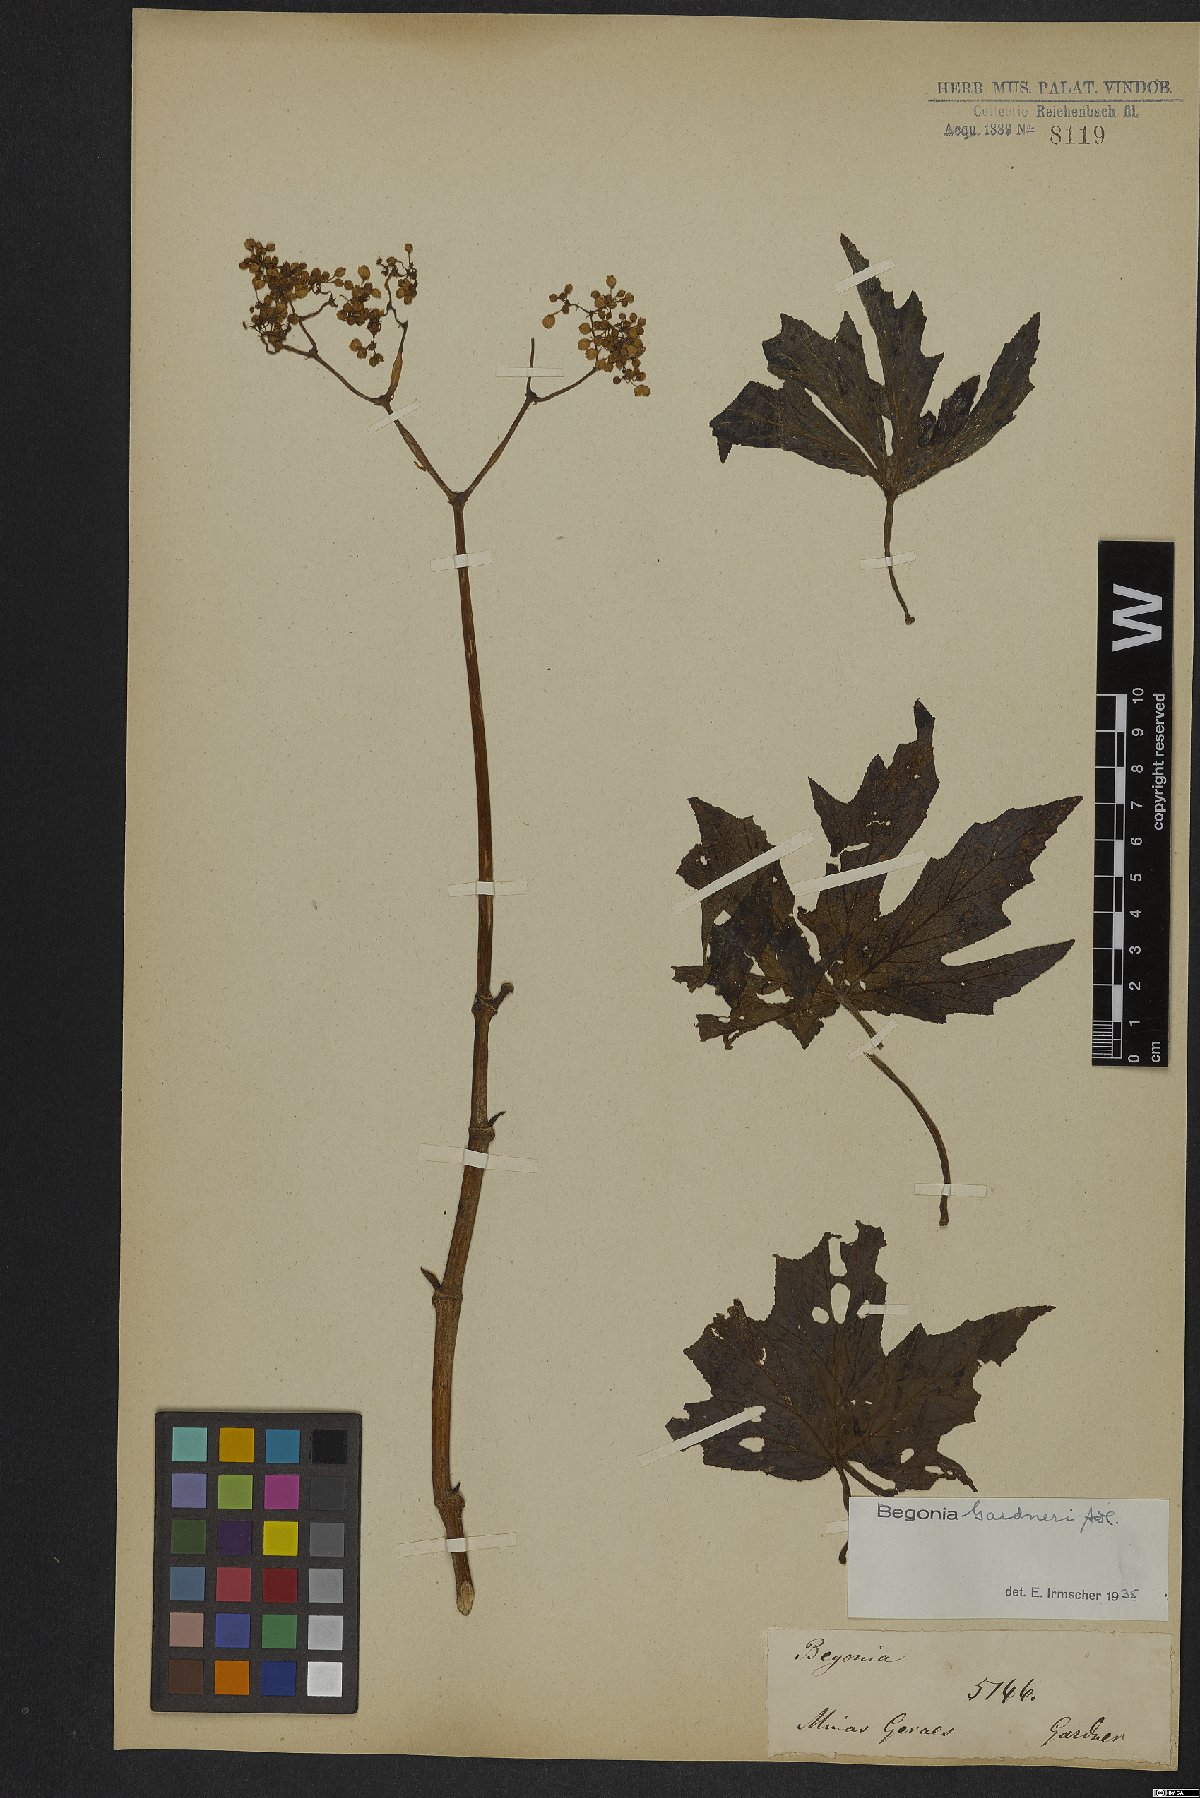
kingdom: Plantae
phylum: Tracheophyta
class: Magnoliopsida
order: Cucurbitales
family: Begoniaceae
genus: Begonia
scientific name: Begonia gardneri
